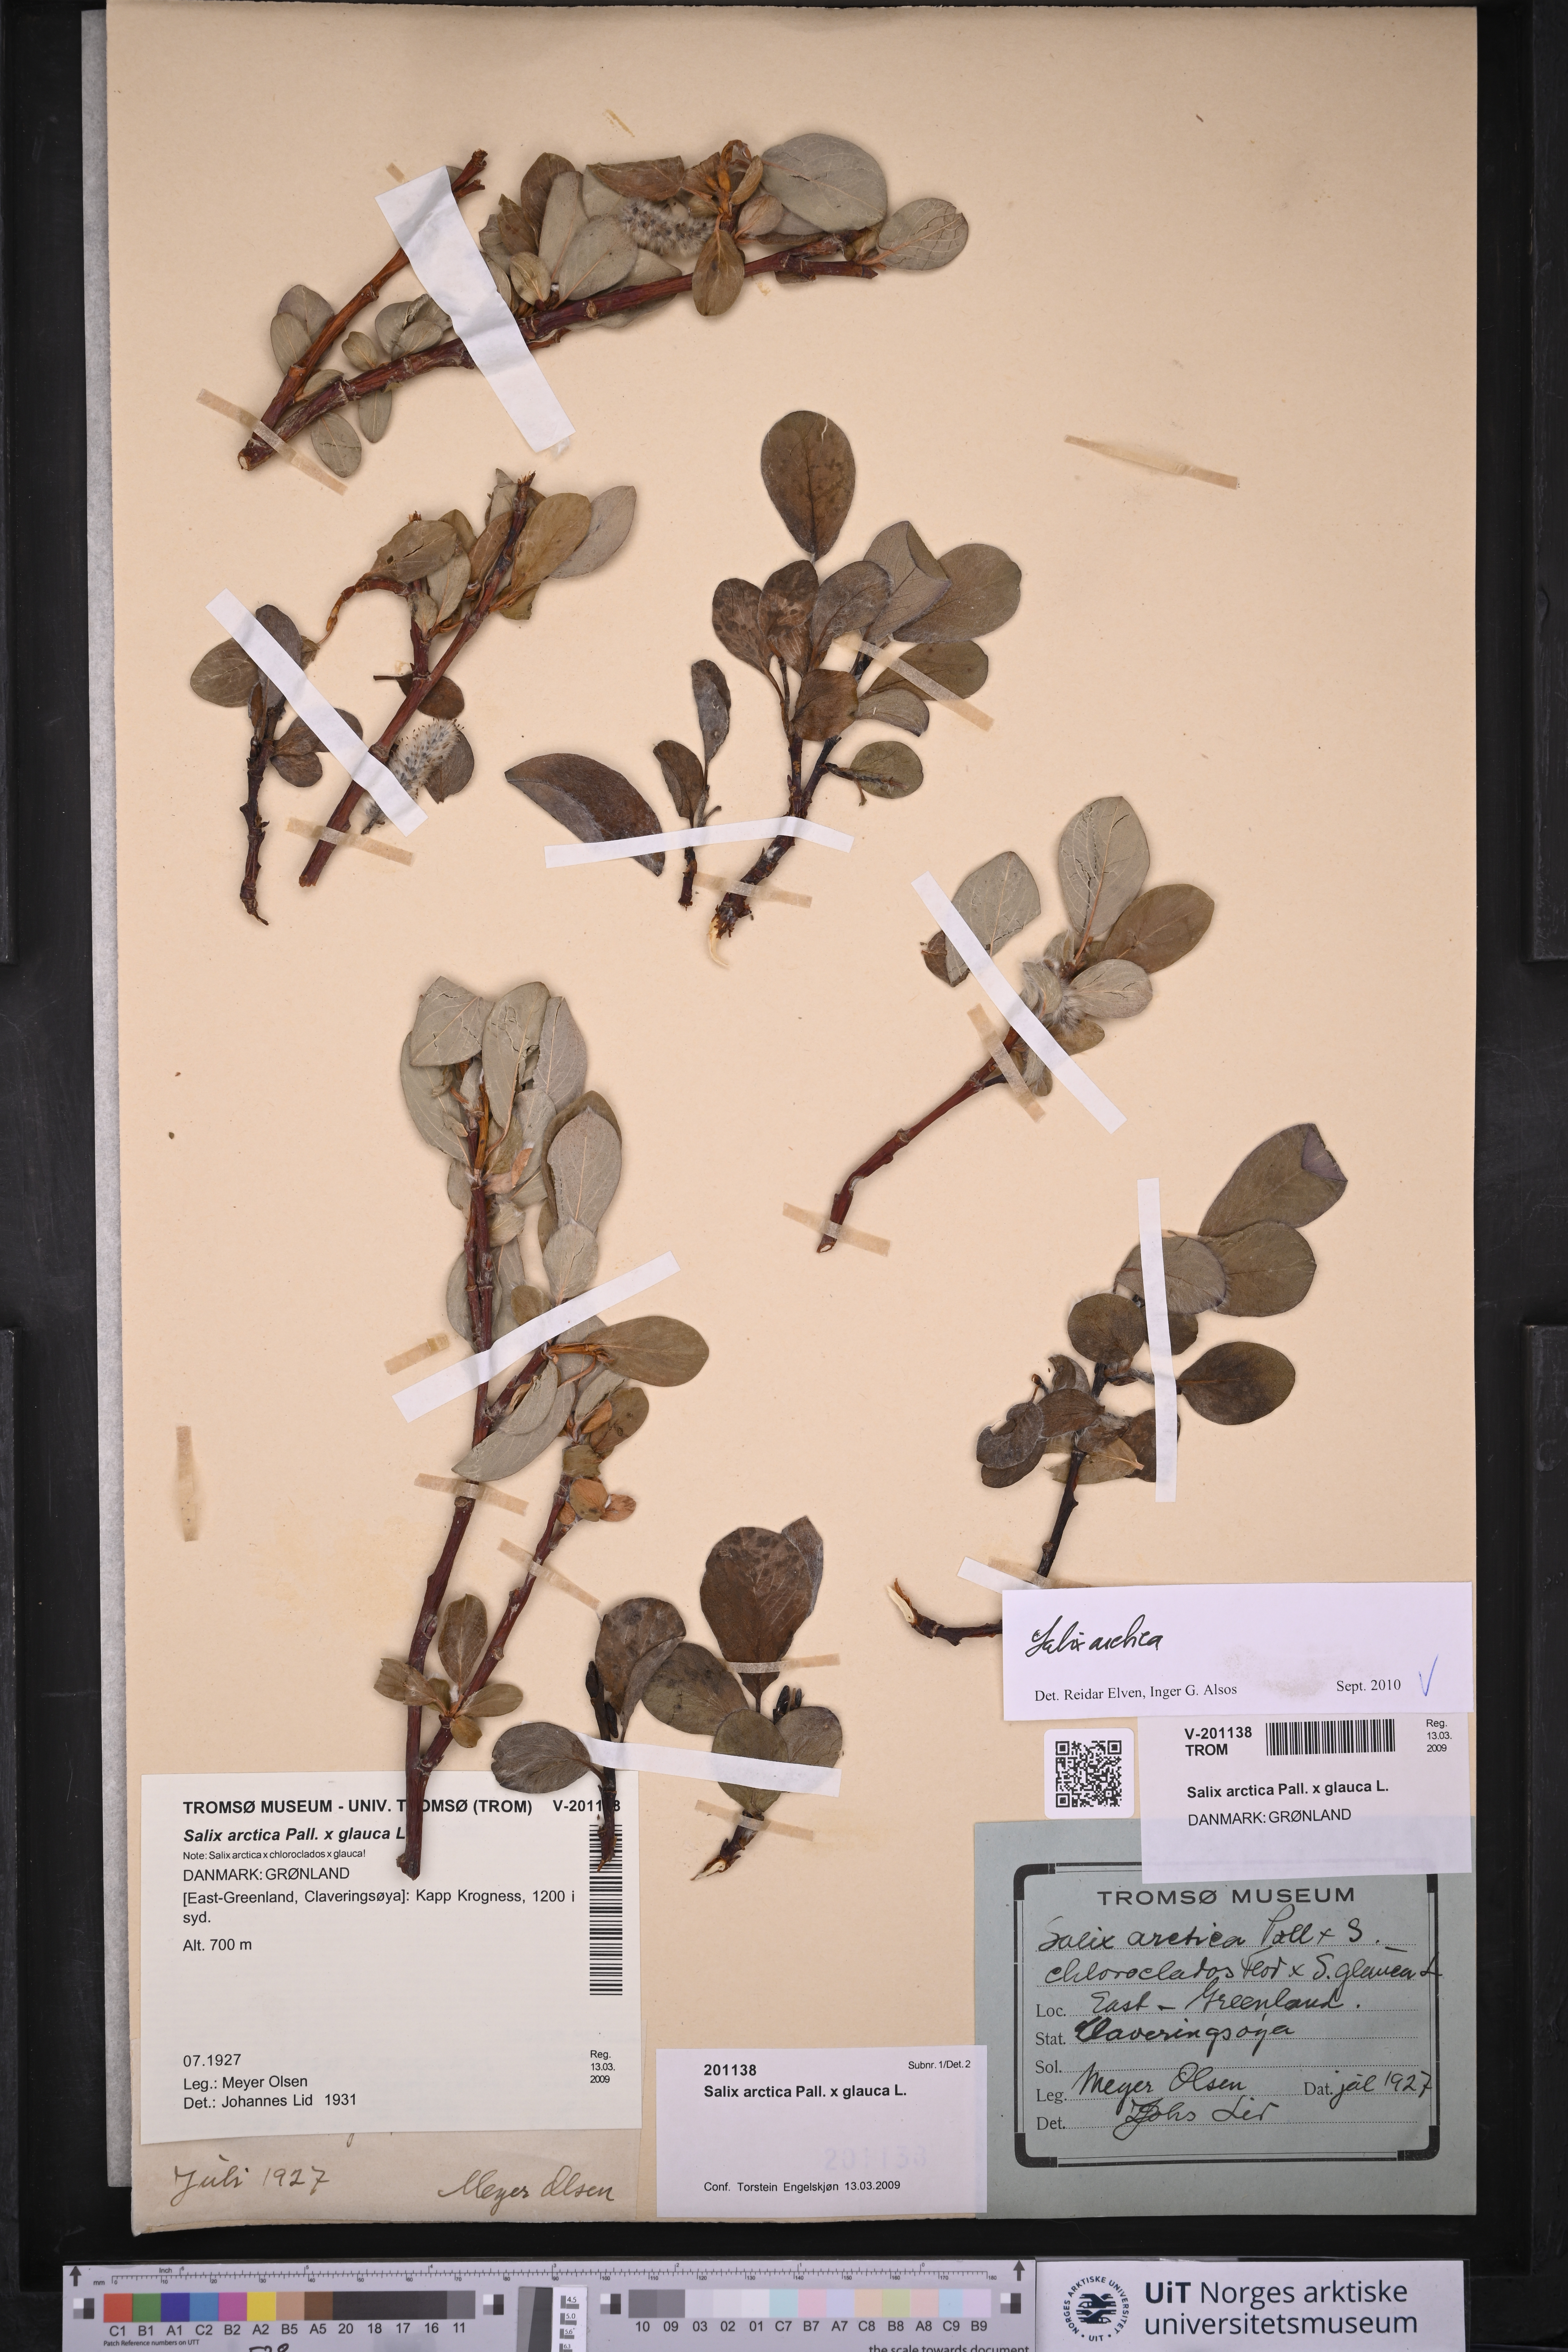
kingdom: Plantae
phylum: Tracheophyta
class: Magnoliopsida
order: Malpighiales
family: Salicaceae
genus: Salix
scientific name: Salix arctica
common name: Arctic willow
